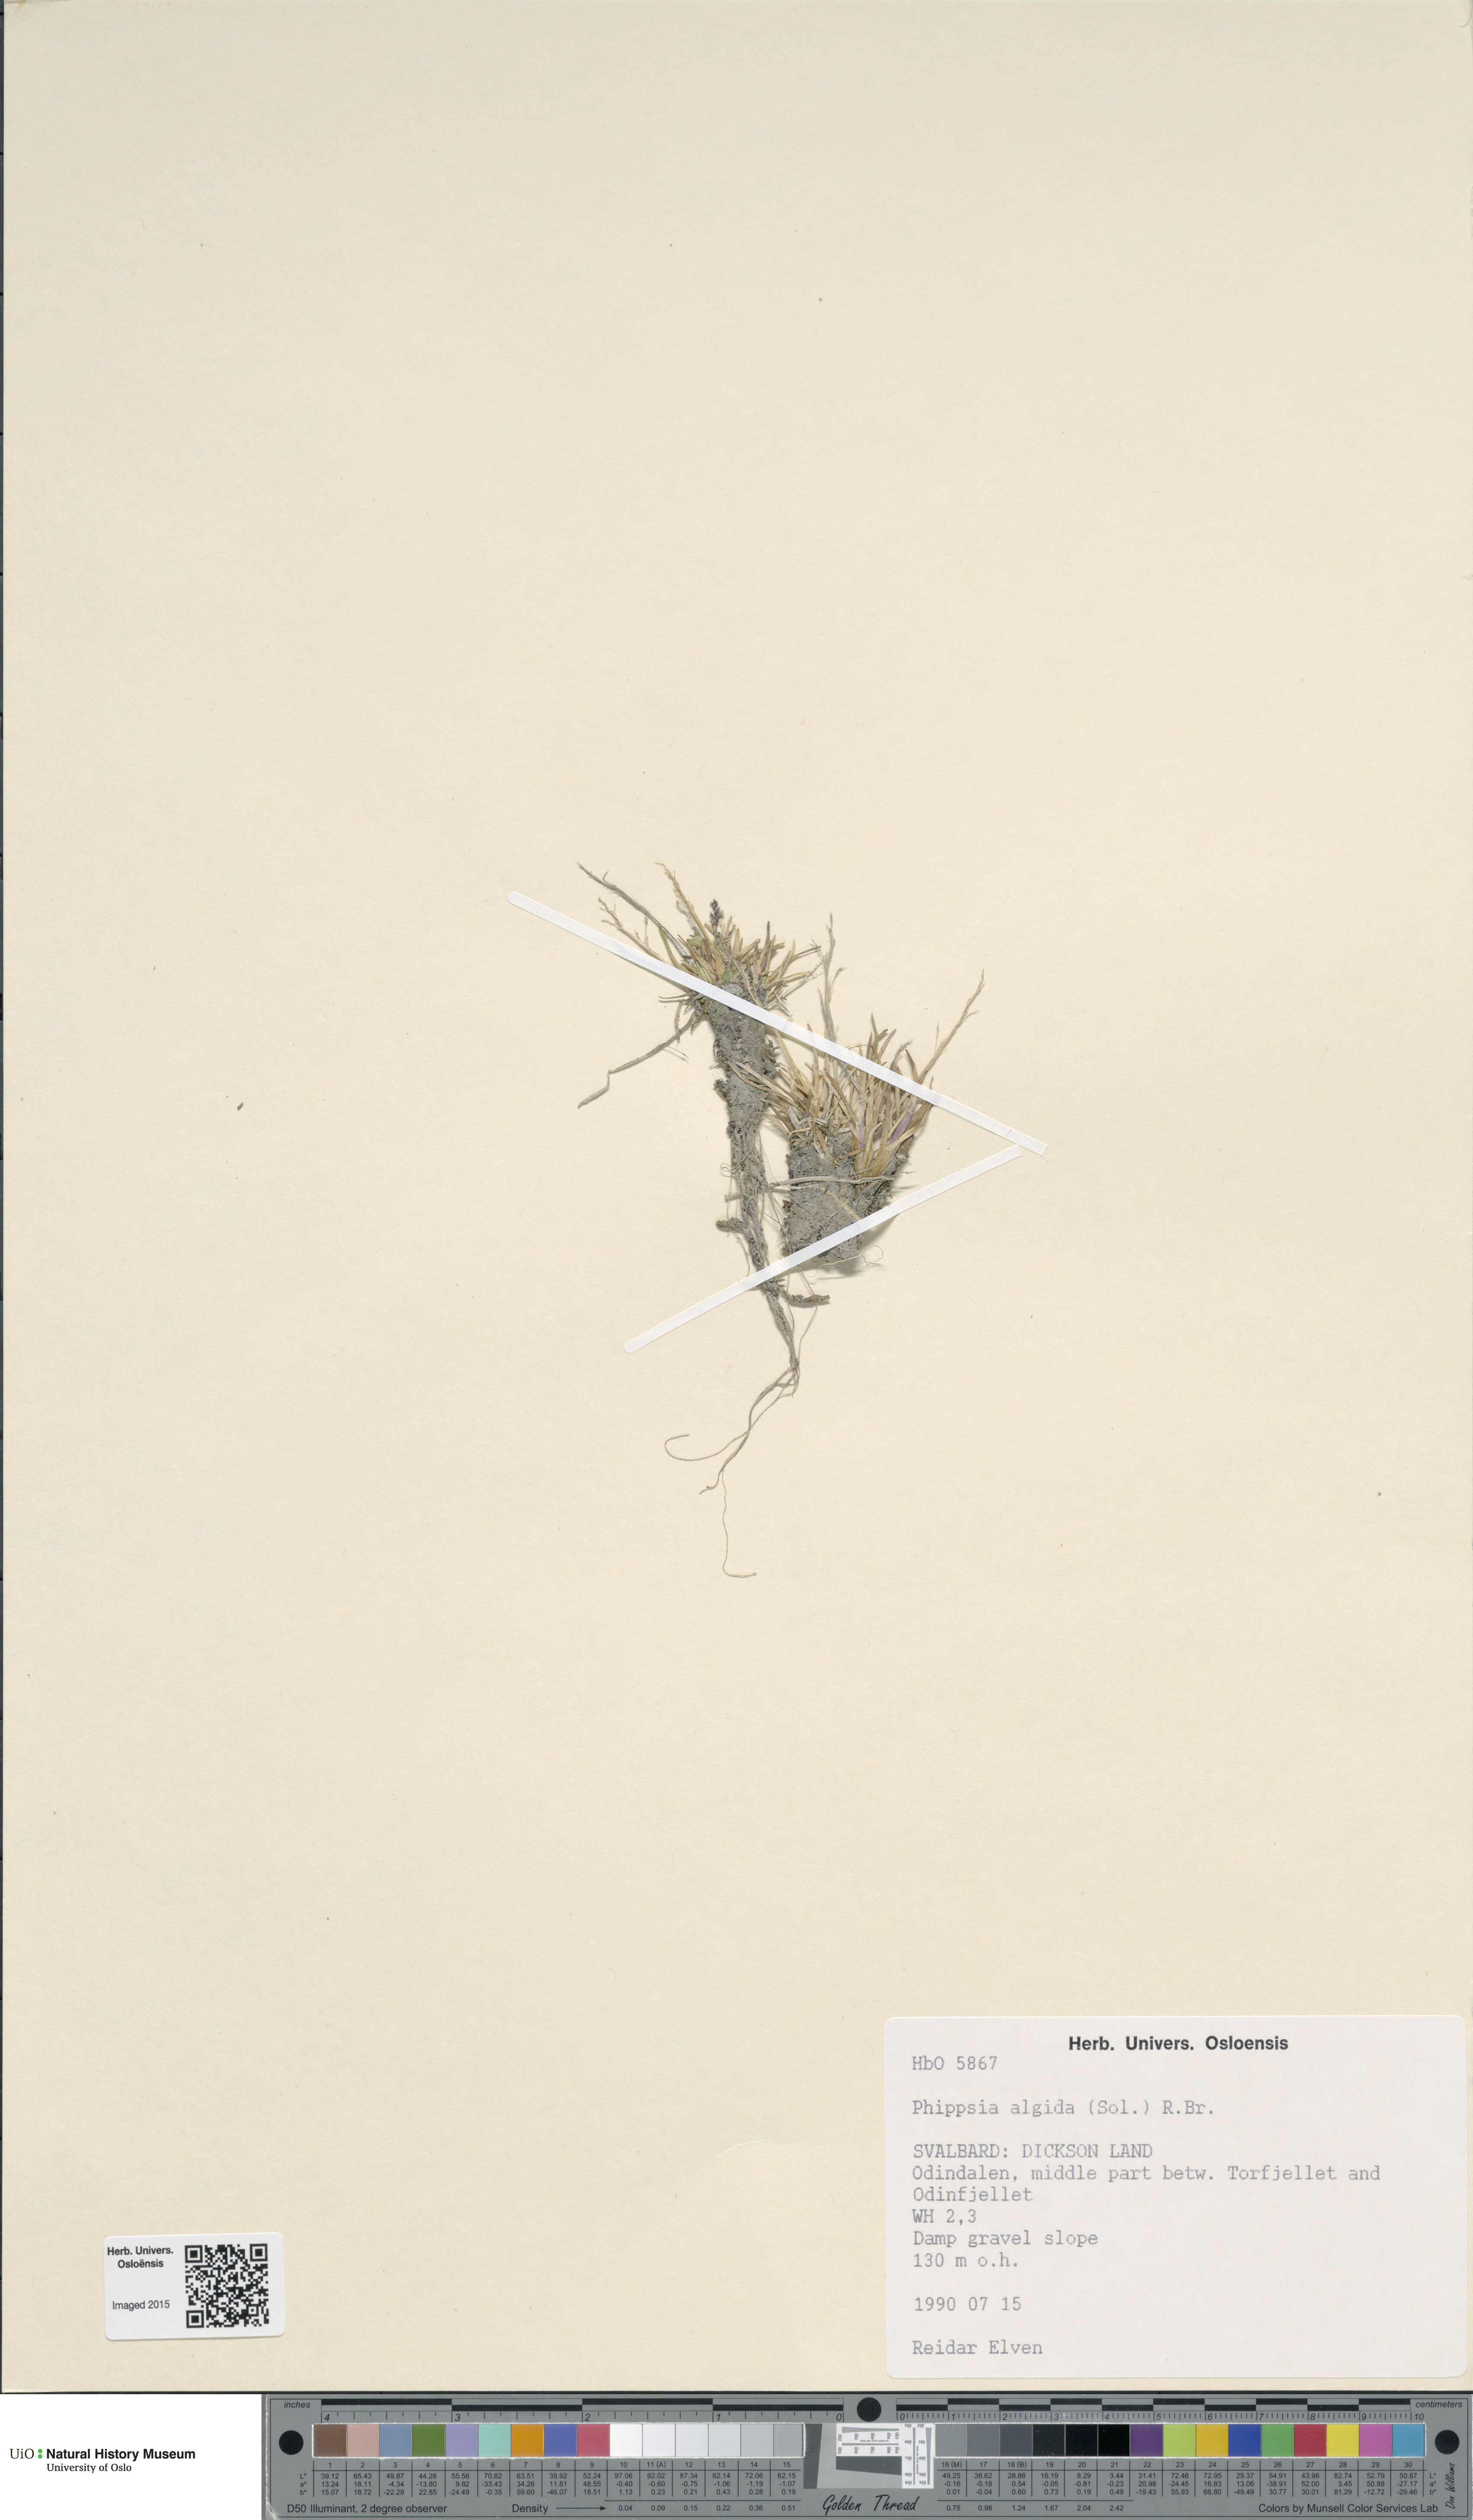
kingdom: Plantae
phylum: Tracheophyta
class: Liliopsida
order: Poales
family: Poaceae
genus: Phippsia
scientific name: Phippsia algida
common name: Ice grass
